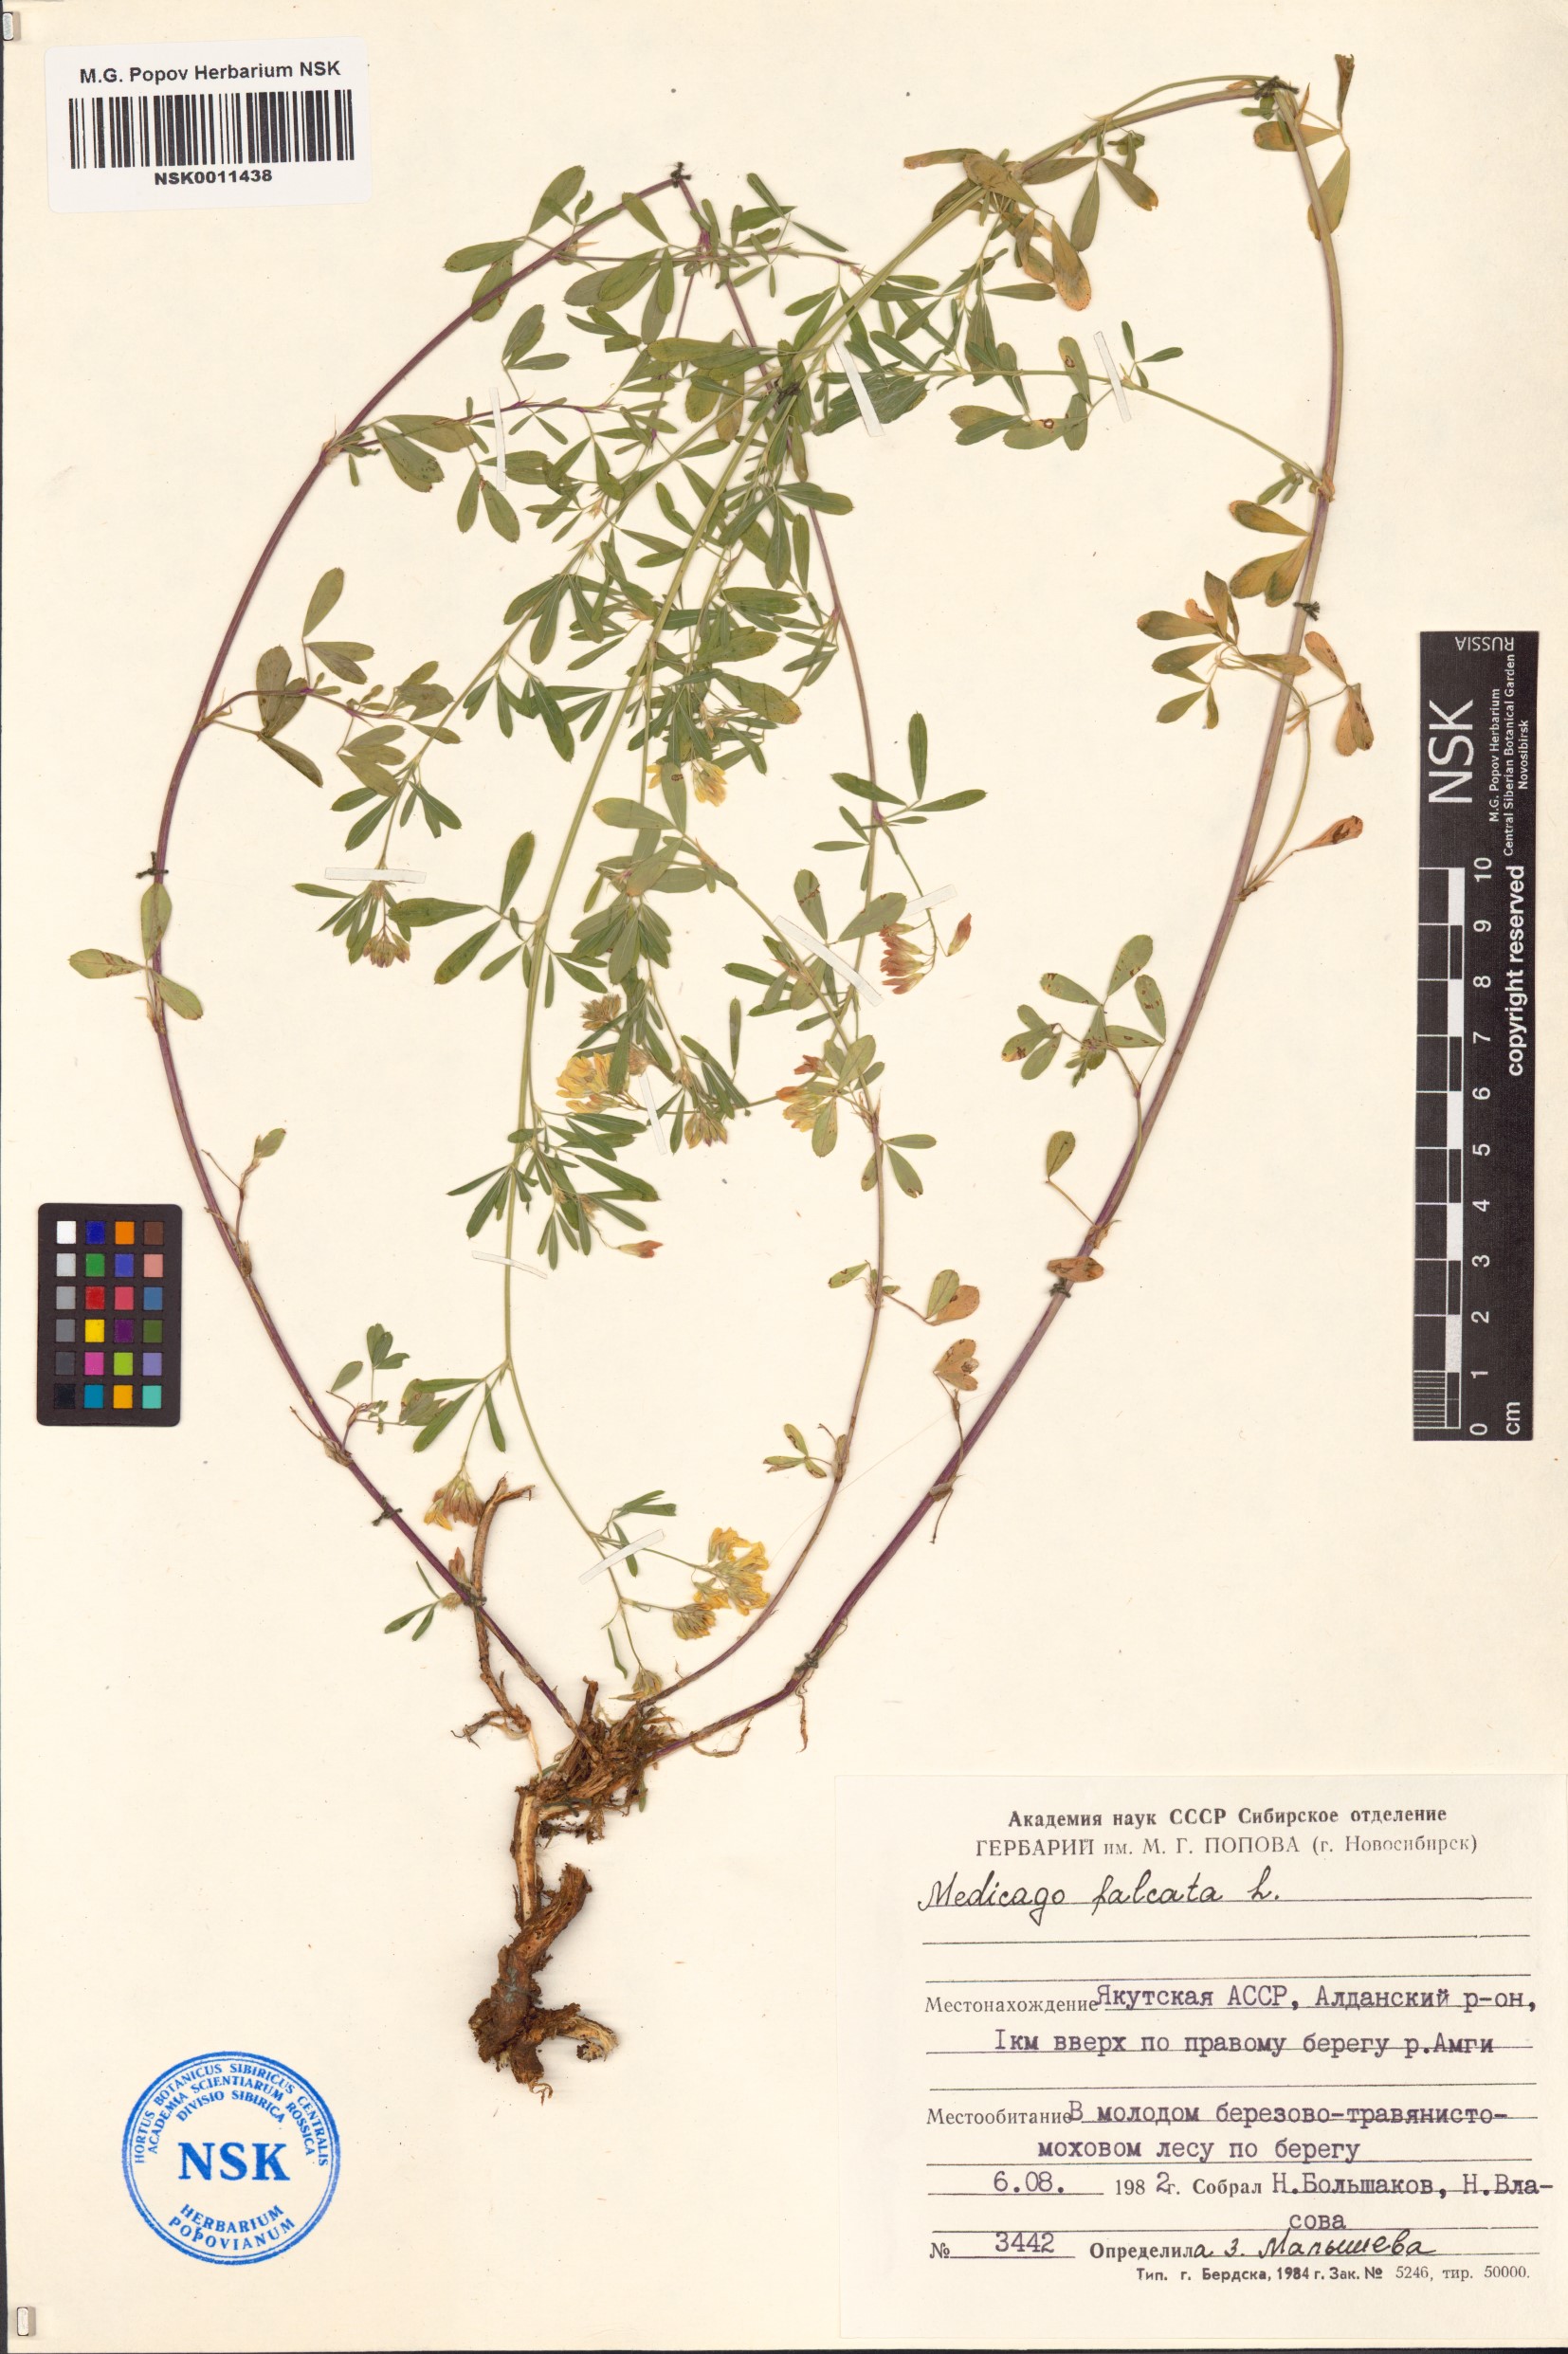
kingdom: Plantae
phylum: Tracheophyta
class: Magnoliopsida
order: Fabales
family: Fabaceae
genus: Medicago
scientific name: Medicago falcata
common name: Sickle medick
